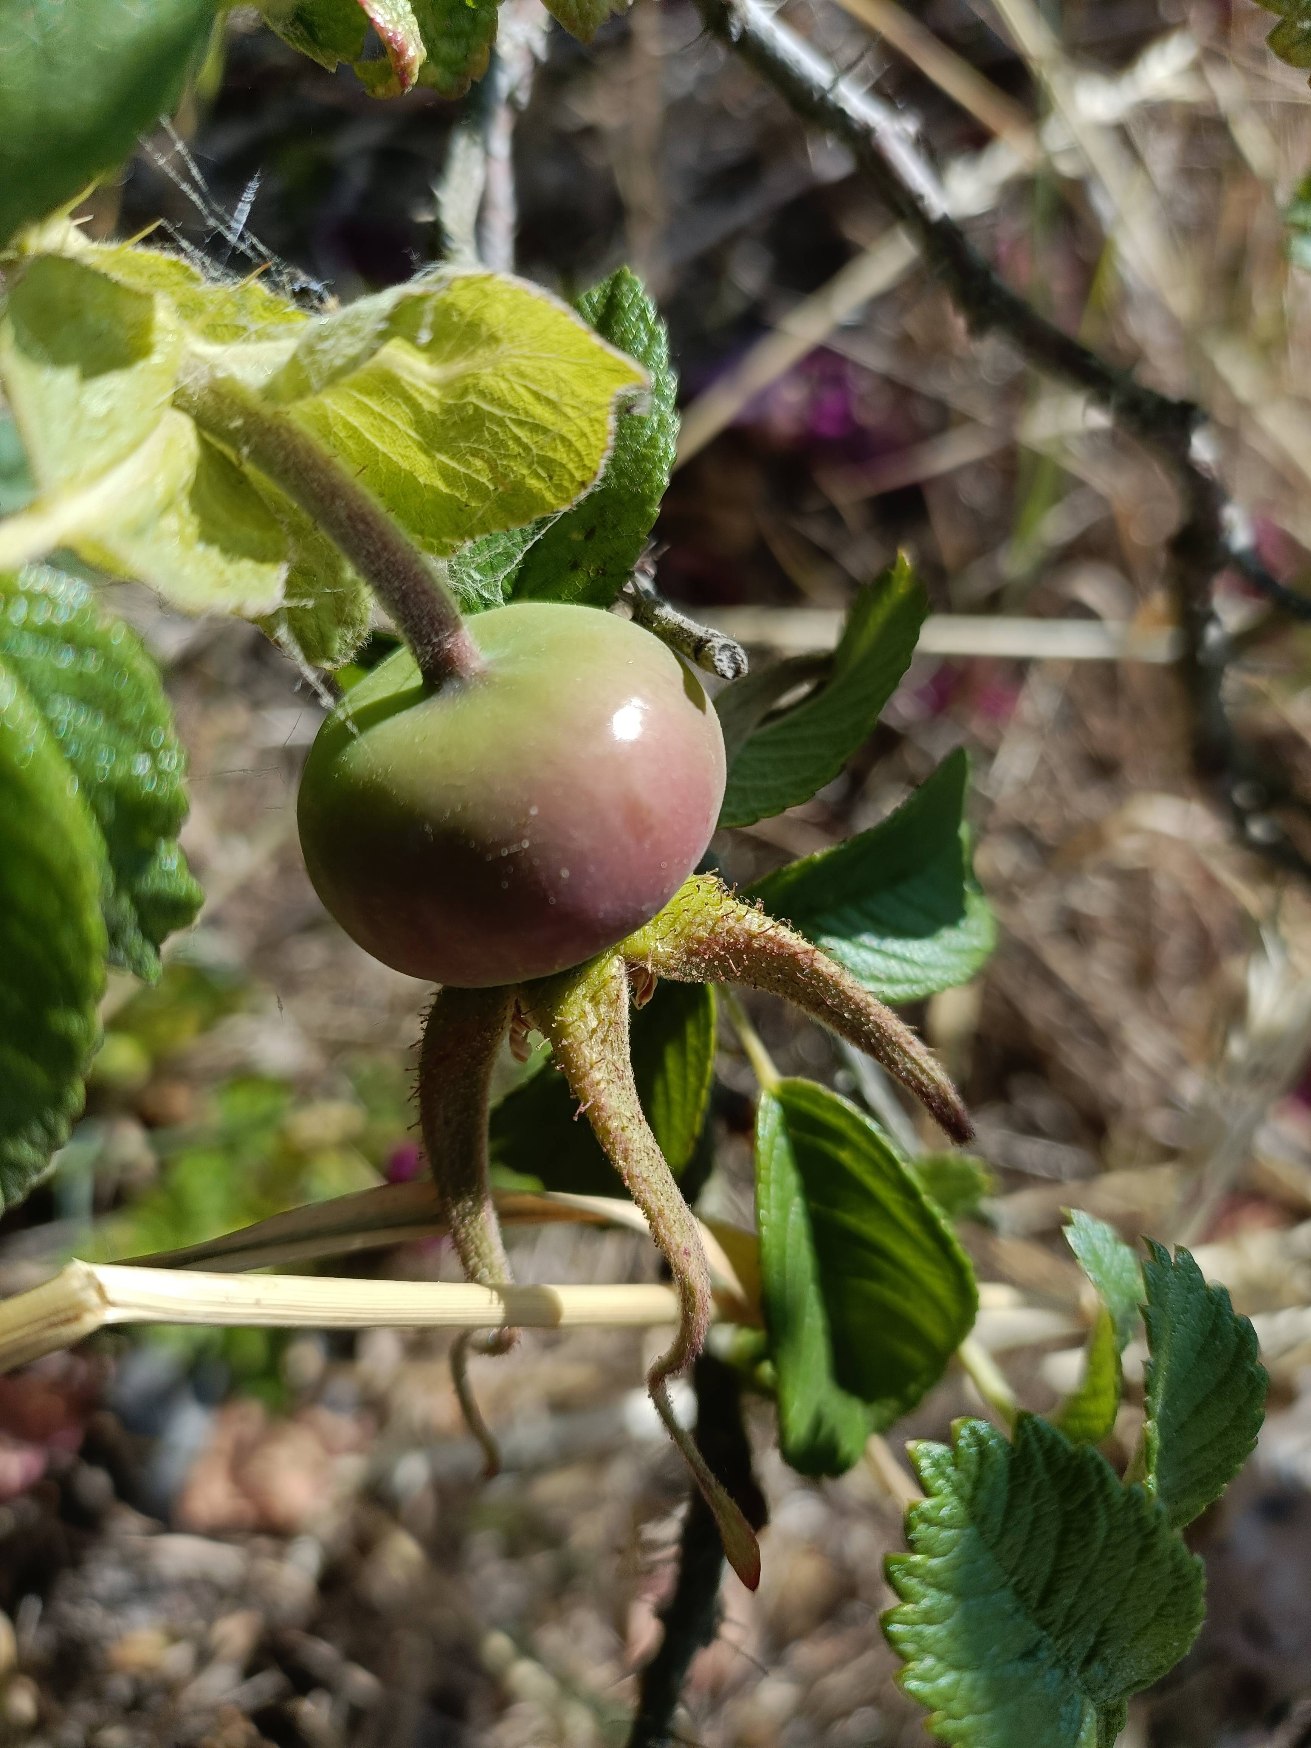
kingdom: Plantae
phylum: Tracheophyta
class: Magnoliopsida
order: Rosales
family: Rosaceae
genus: Rosa
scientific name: Rosa rugosa
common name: Rynket rose
